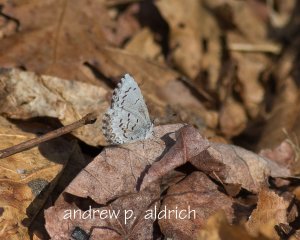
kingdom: Animalia
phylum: Arthropoda
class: Insecta
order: Lepidoptera
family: Lycaenidae
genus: Celastrina
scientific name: Celastrina ladon
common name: Spring Azure
